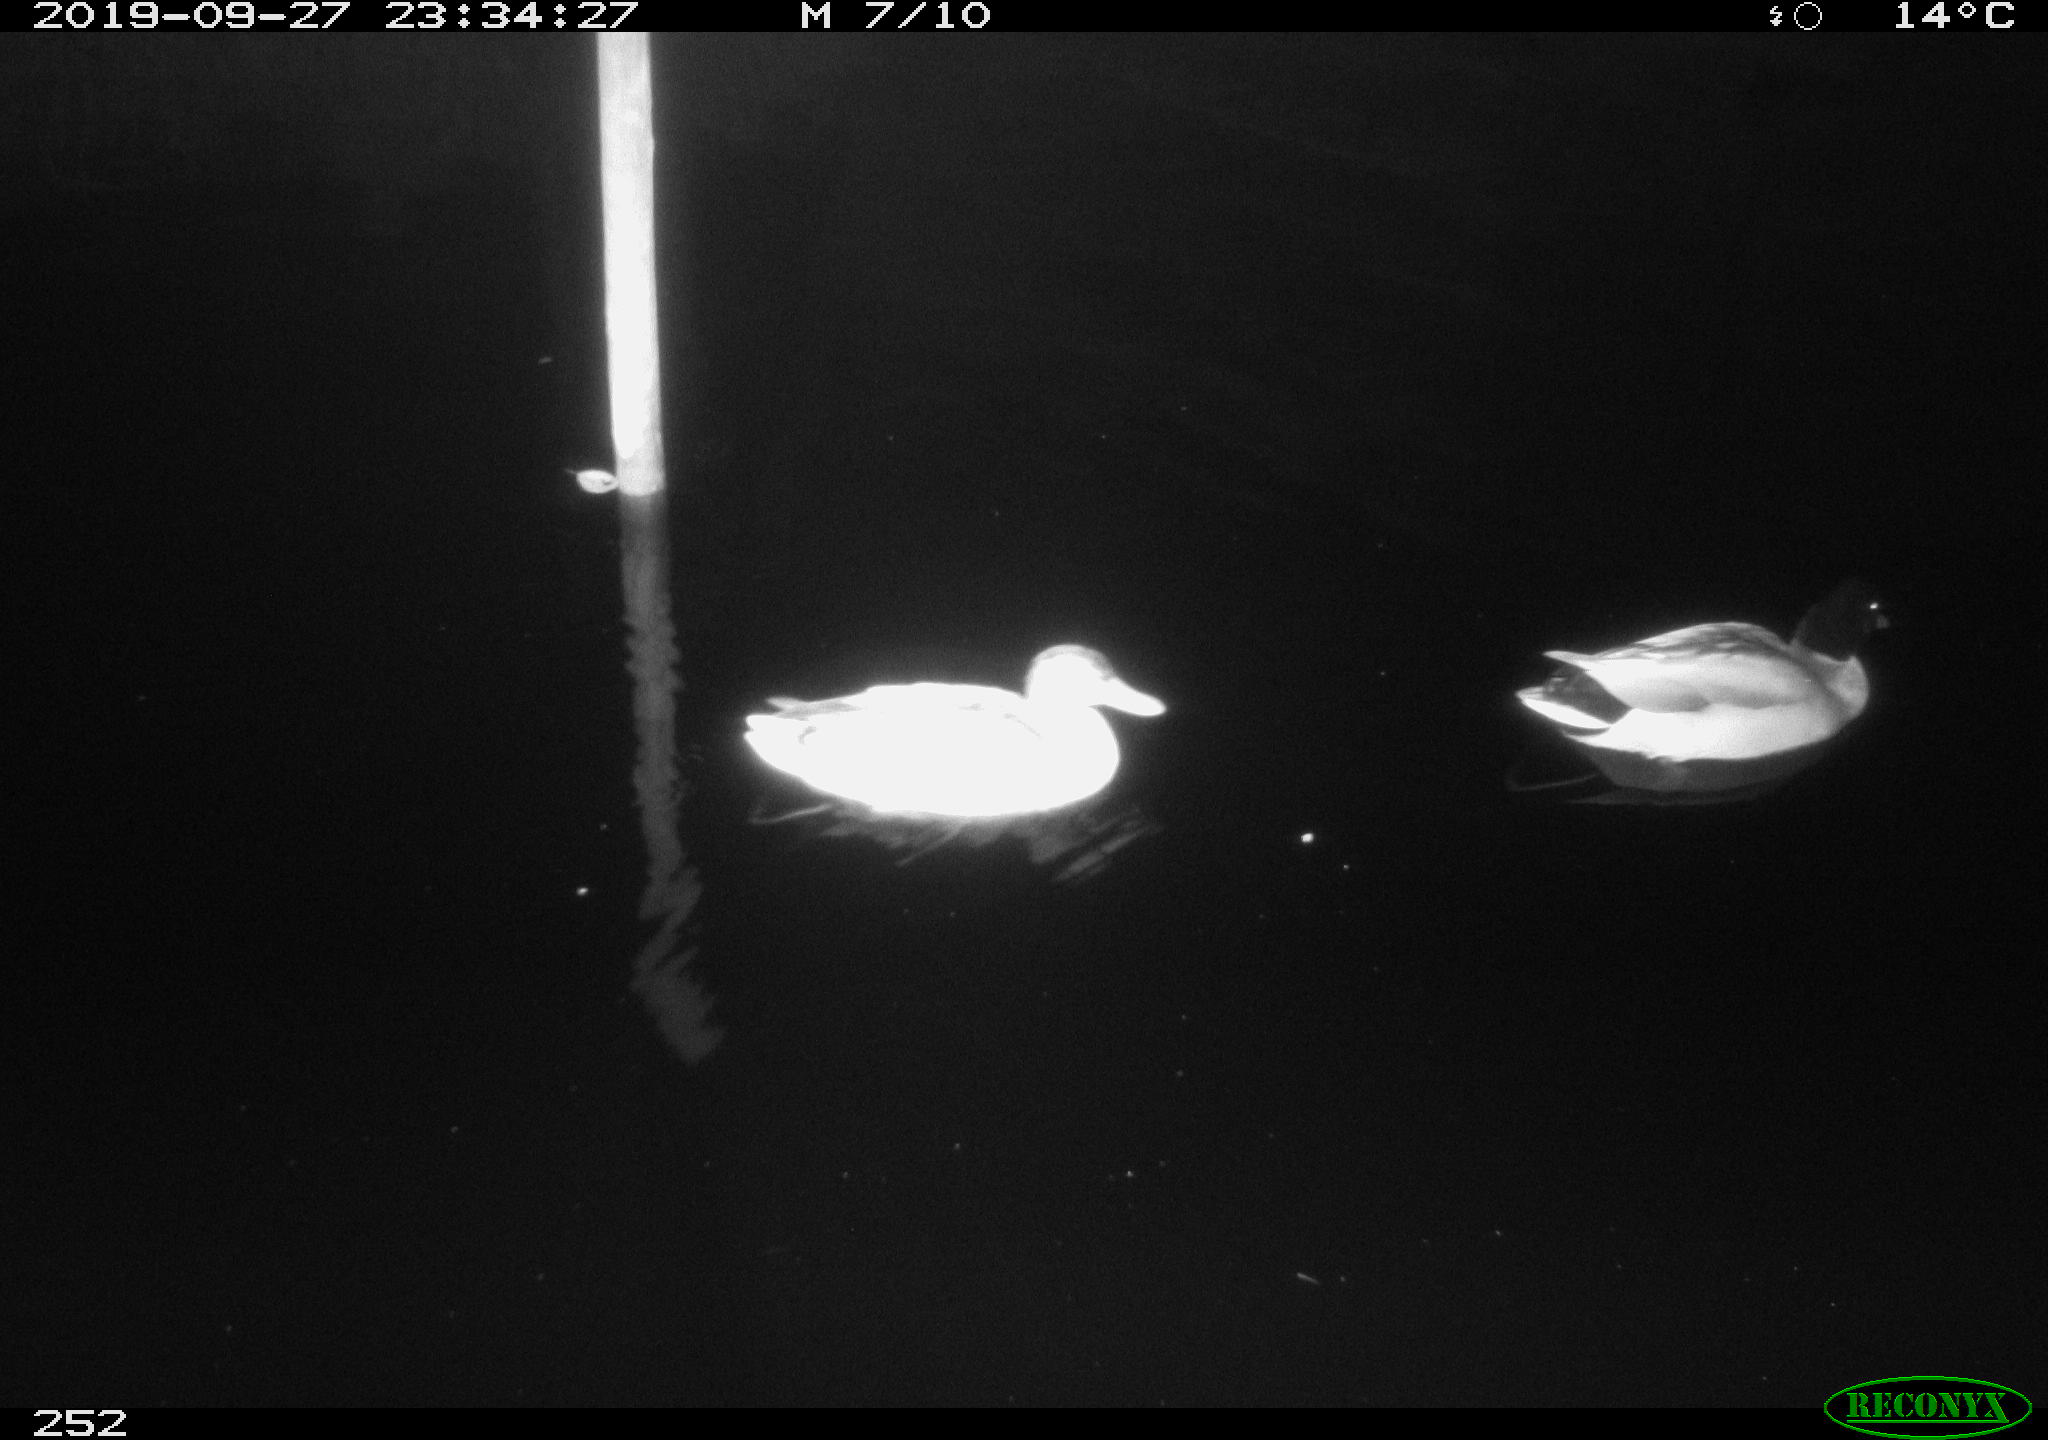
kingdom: Animalia
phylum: Chordata
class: Aves
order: Anseriformes
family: Anatidae
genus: Anas
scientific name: Anas platyrhynchos
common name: Mallard
